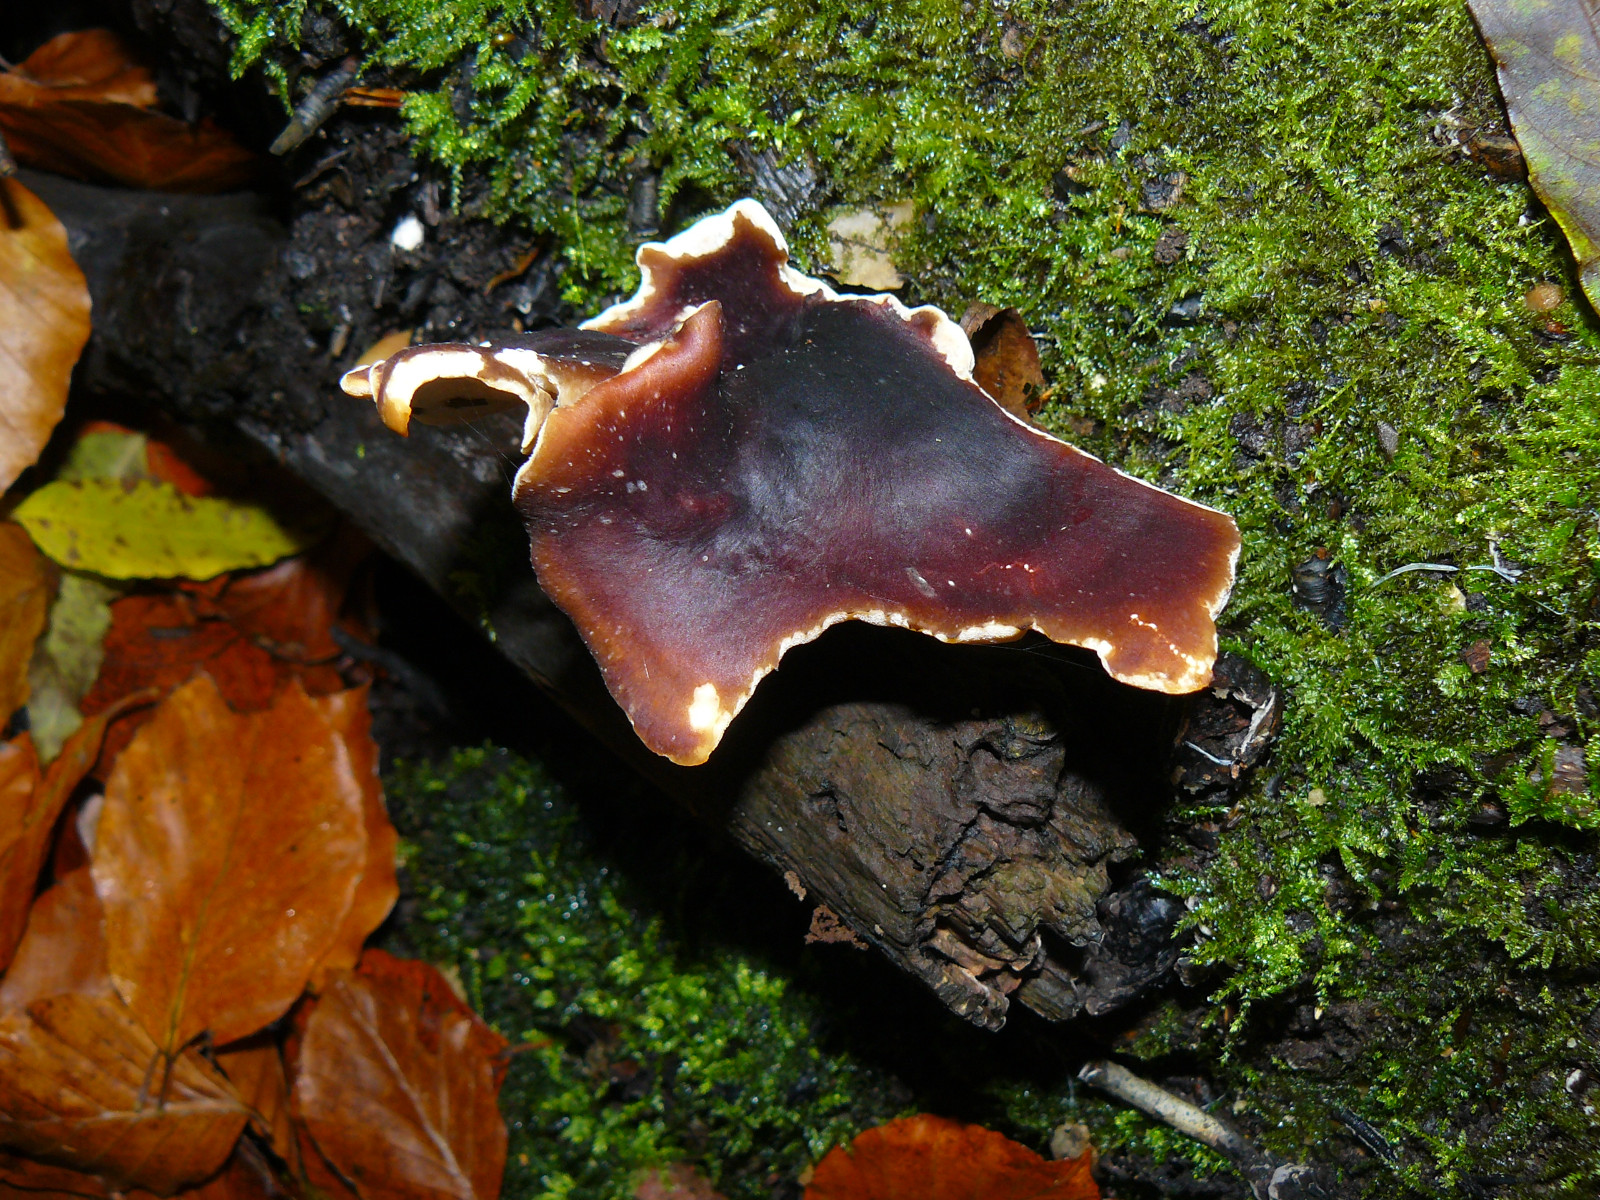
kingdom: Fungi
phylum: Basidiomycota
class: Agaricomycetes
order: Polyporales
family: Polyporaceae
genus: Picipes
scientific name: Picipes badius
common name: kastaniebrun stilkporesvamp
